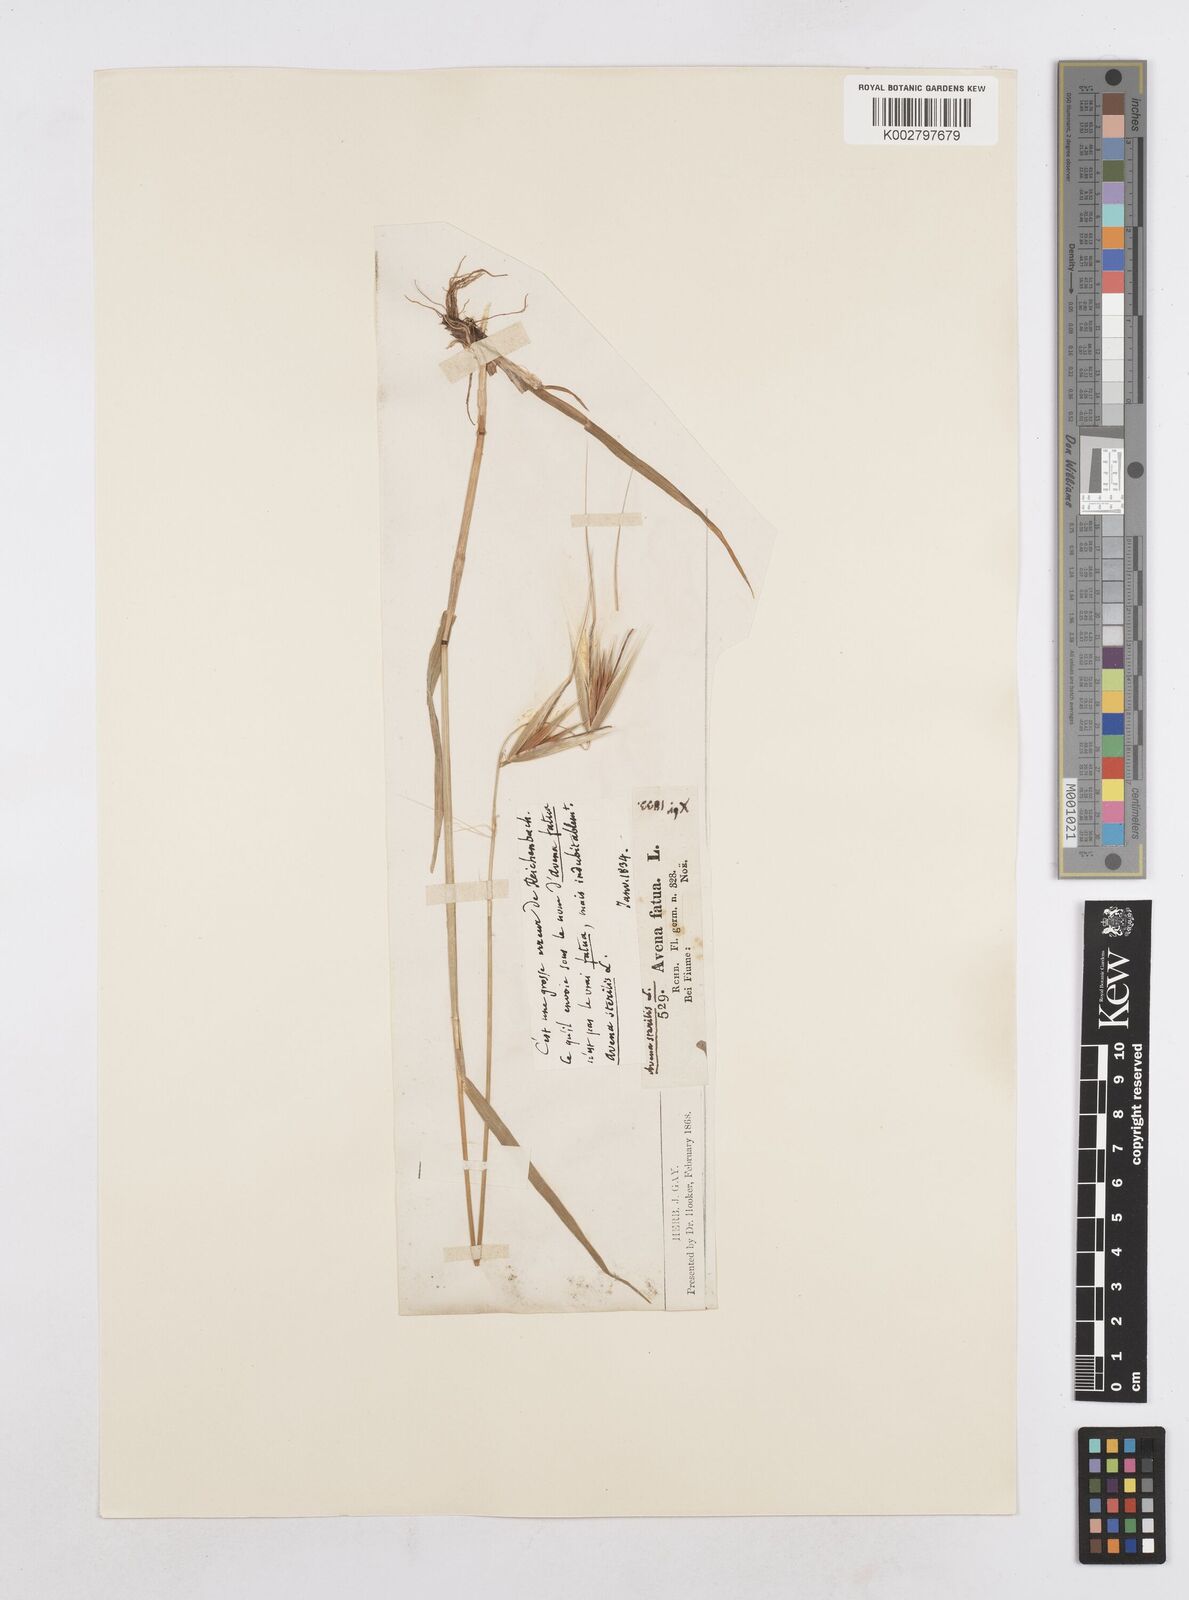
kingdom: Plantae
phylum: Tracheophyta
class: Liliopsida
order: Poales
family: Poaceae
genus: Avena
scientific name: Avena sterilis
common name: Animated oat
